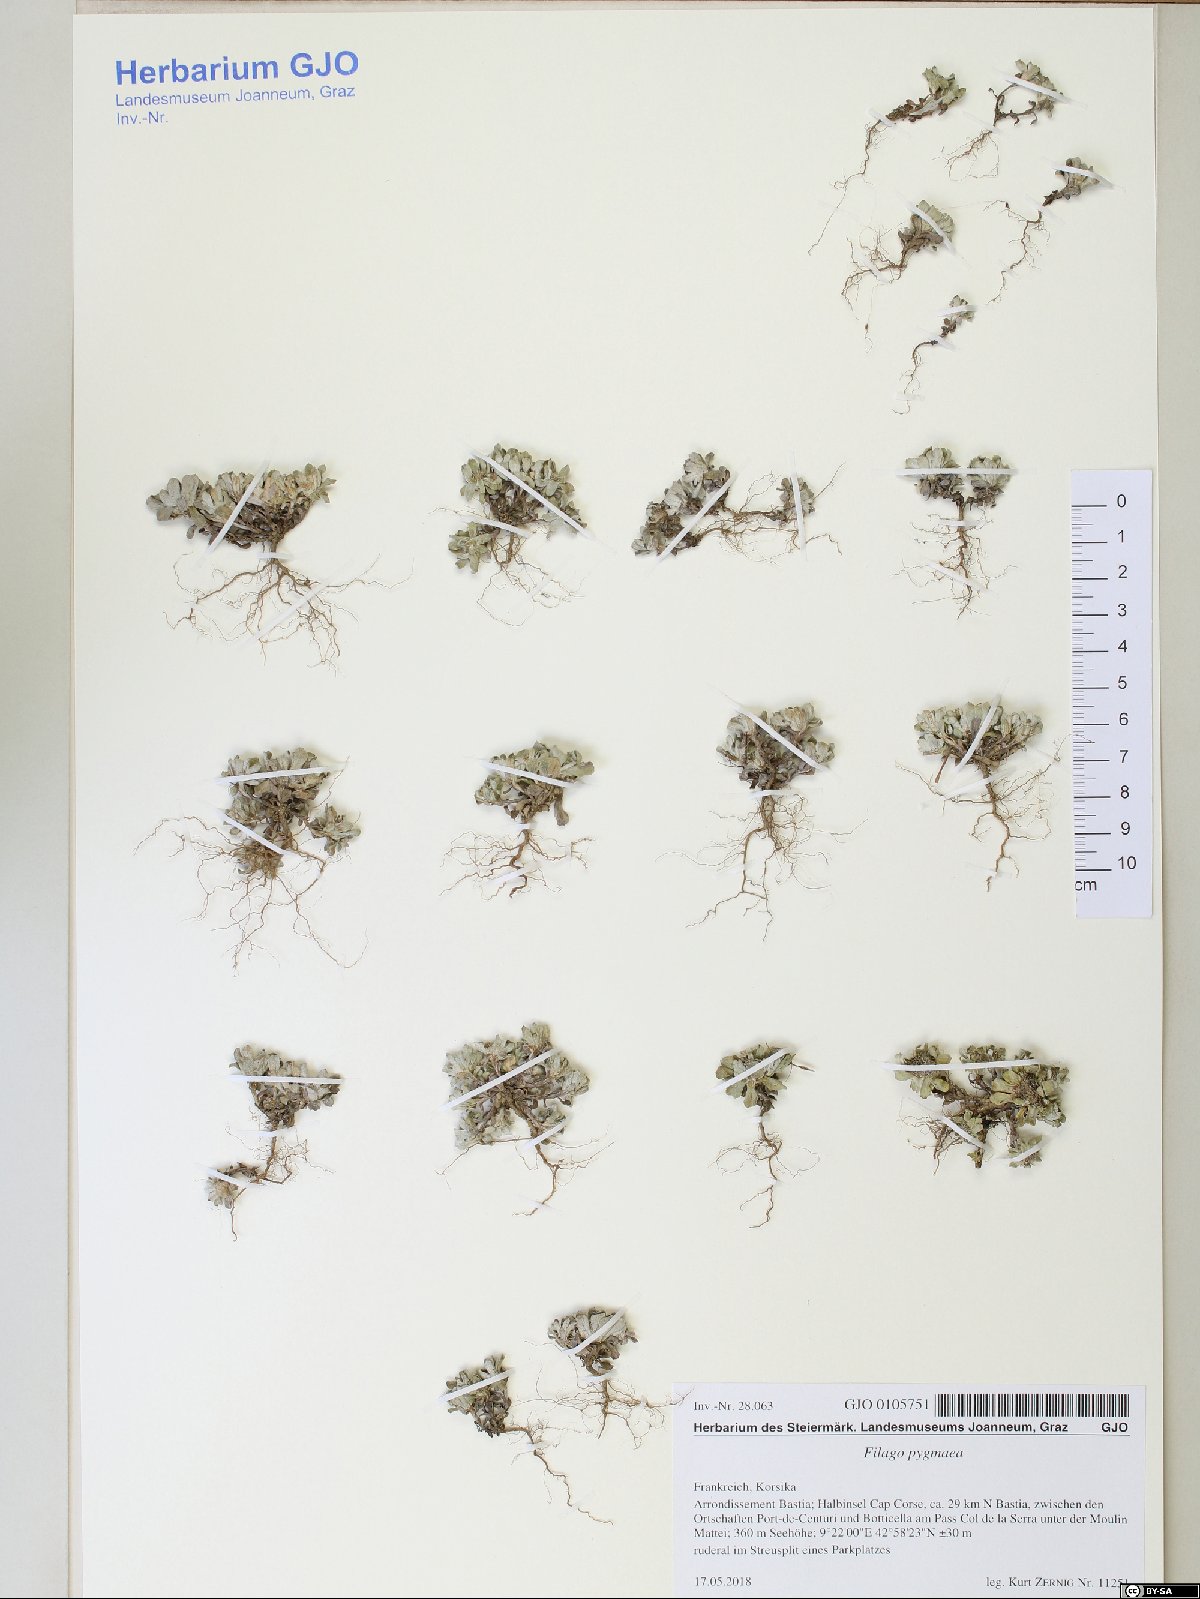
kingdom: Plantae
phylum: Tracheophyta
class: Magnoliopsida
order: Asterales
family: Asteraceae
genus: Filago
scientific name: Filago pygmaea
